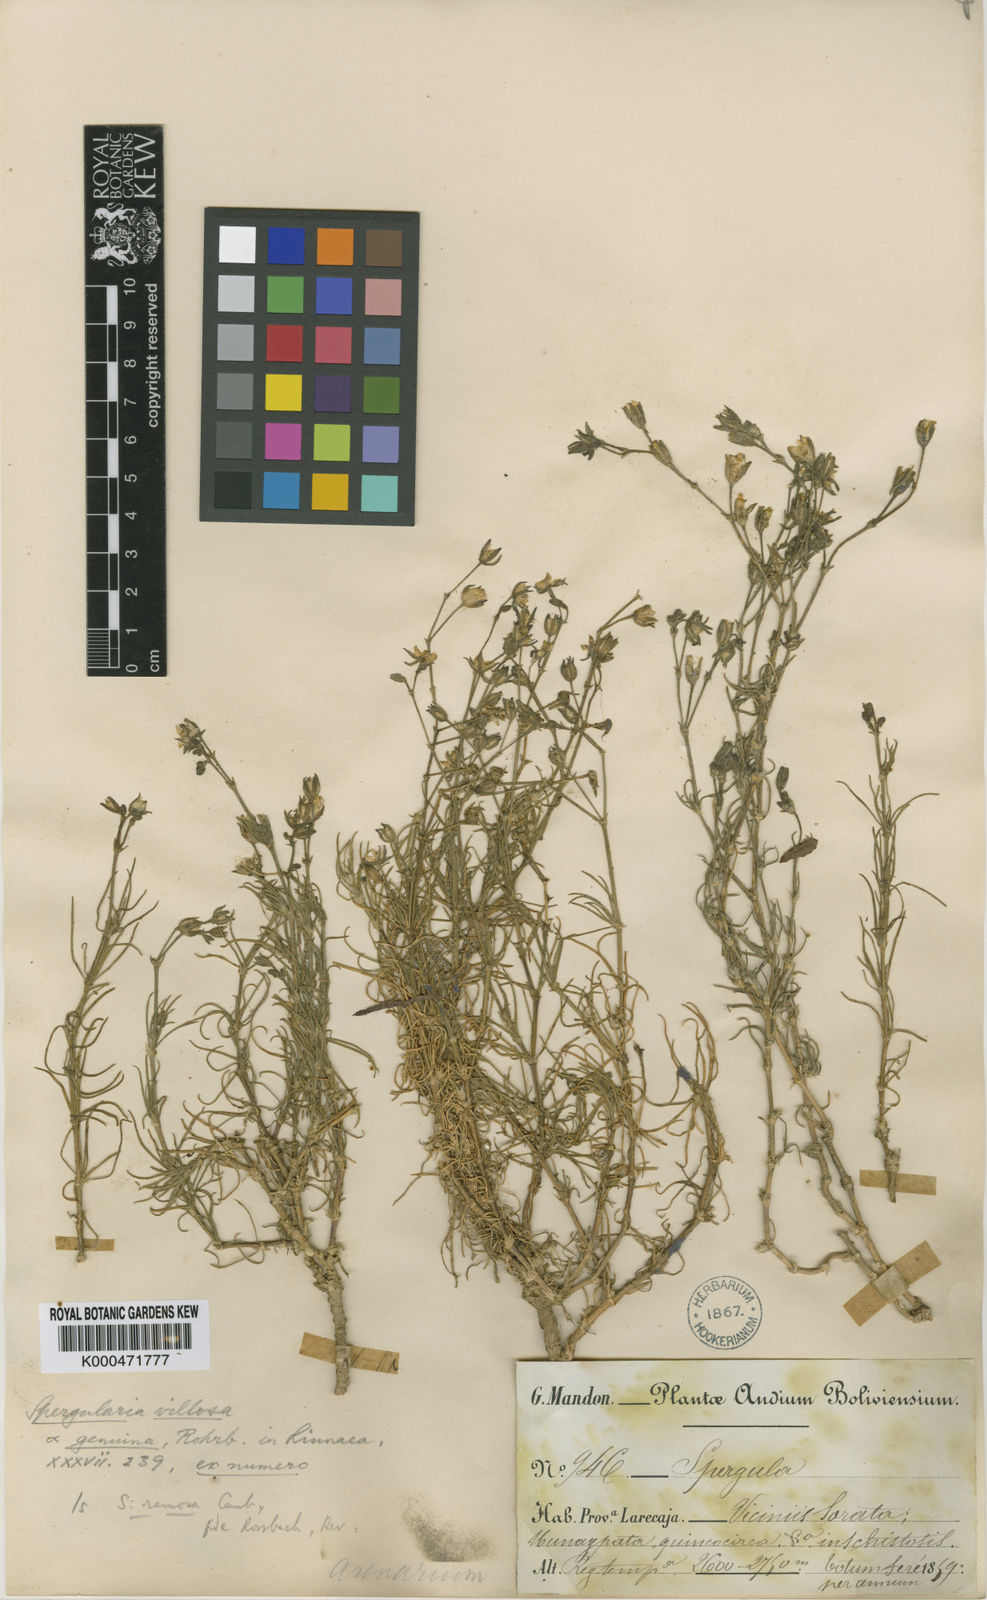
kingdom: Plantae
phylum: Tracheophyta
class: Magnoliopsida
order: Caryophyllales
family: Caryophyllaceae
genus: Spergula
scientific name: Spergula ramosa
